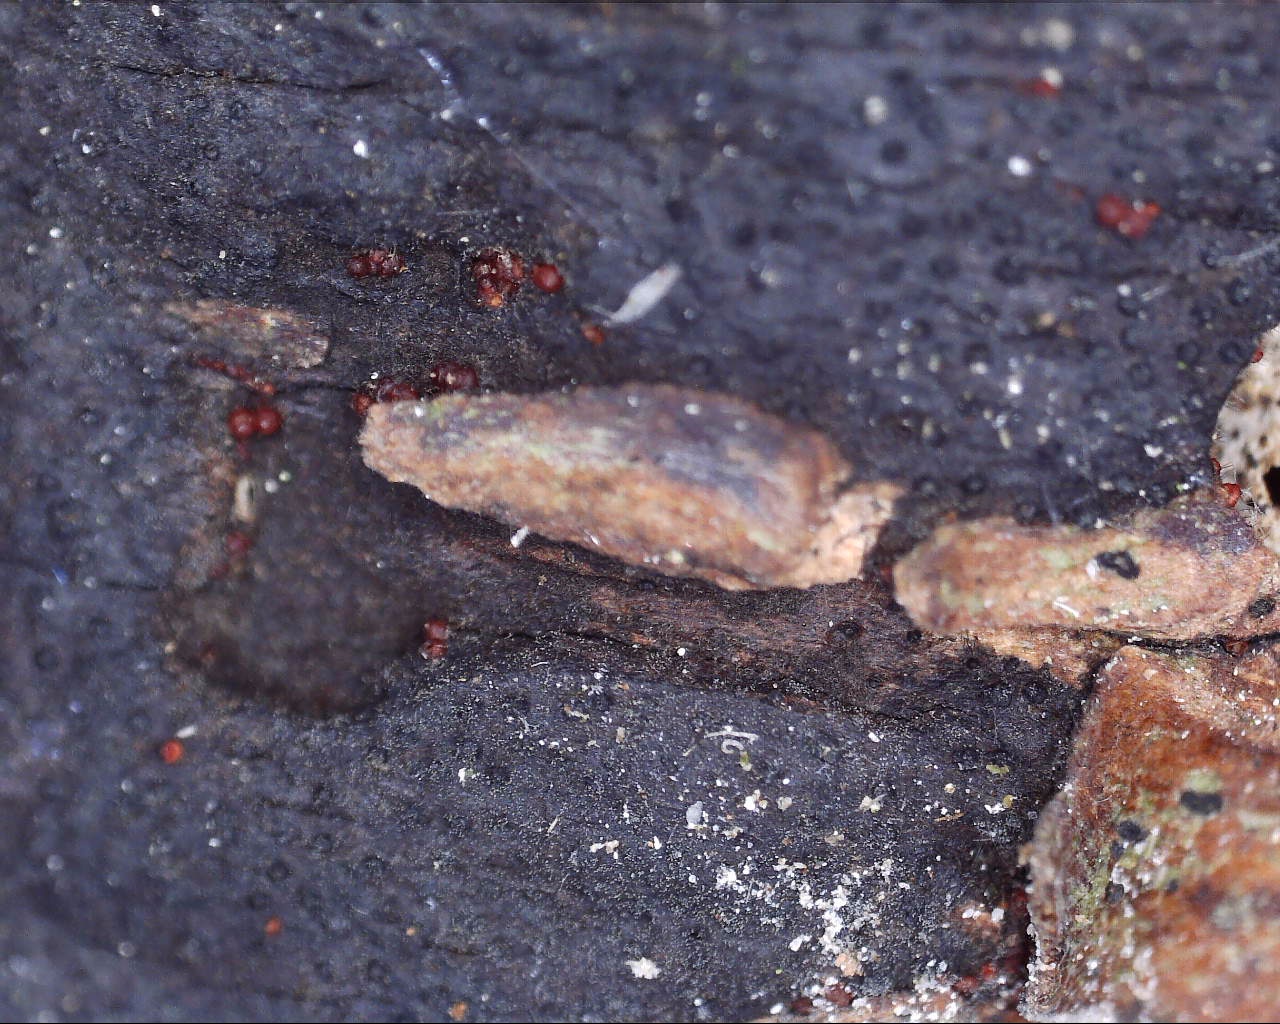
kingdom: Fungi
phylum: Ascomycota
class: Sordariomycetes
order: Hypocreales
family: Nectriaceae
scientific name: Nectriaceae
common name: cinnobersvampfamilien
